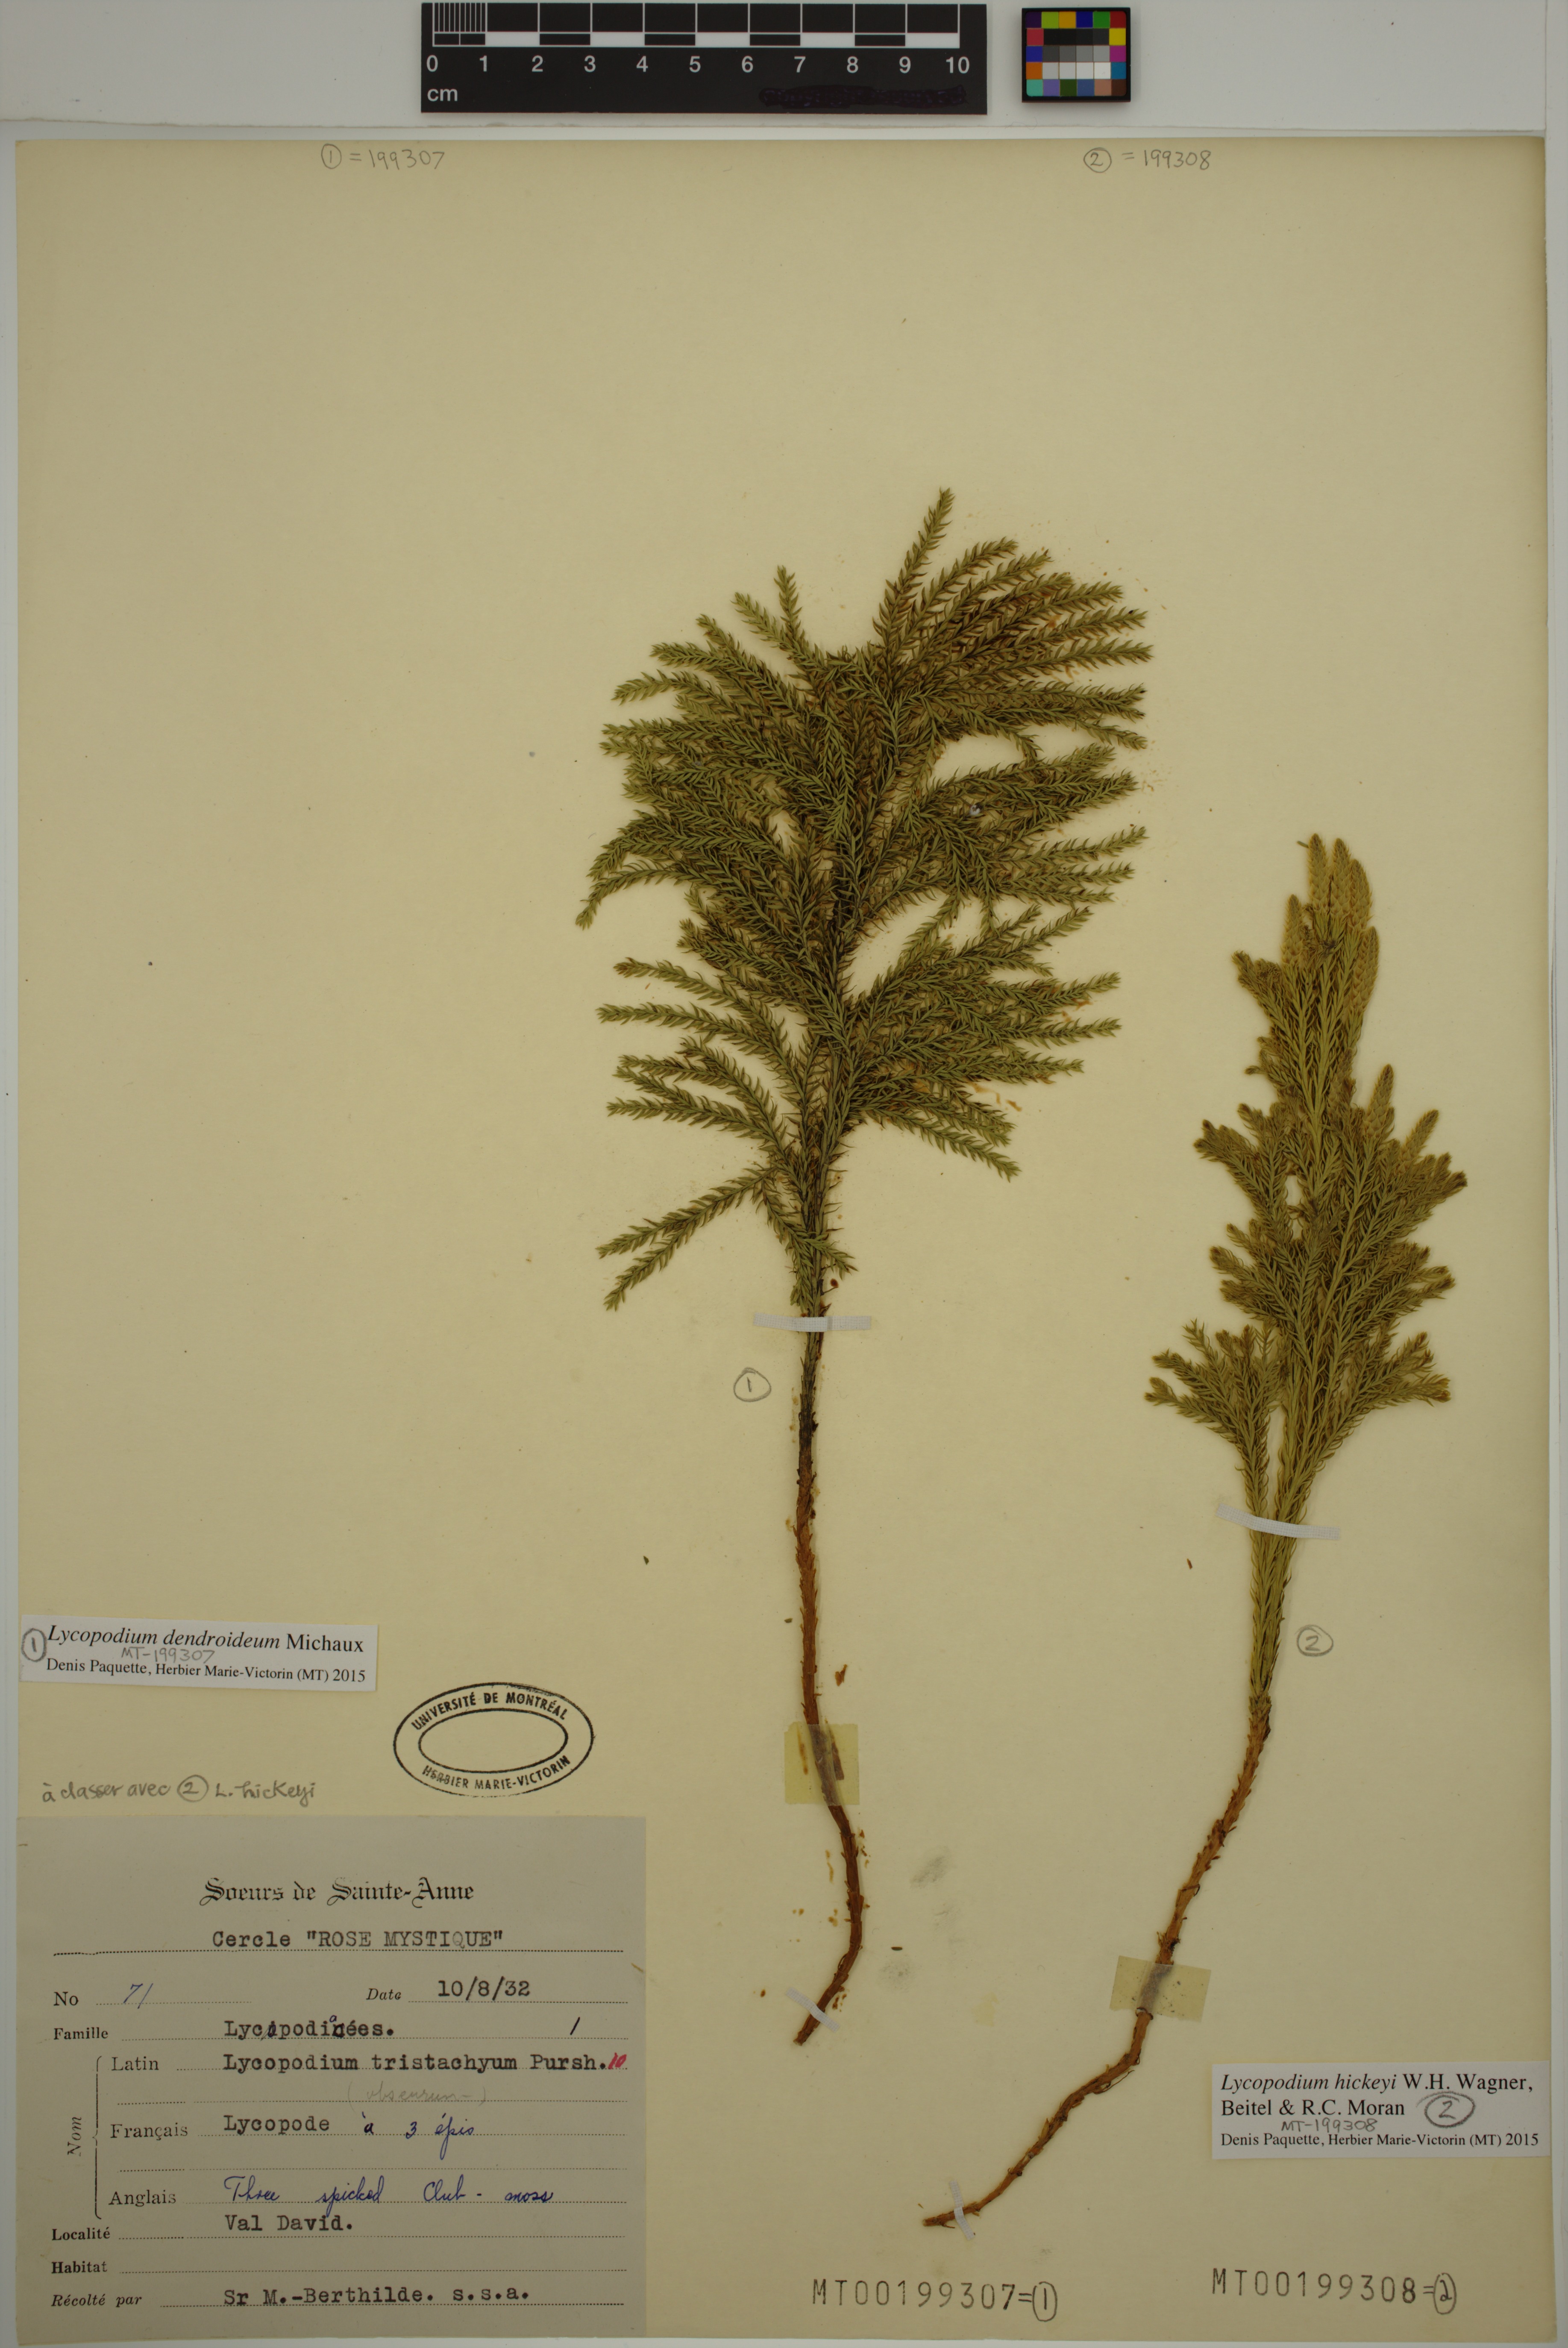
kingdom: Plantae
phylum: Tracheophyta
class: Lycopodiopsida
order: Lycopodiales
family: Lycopodiaceae
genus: Dendrolycopodium
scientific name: Dendrolycopodium hickeyi
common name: Hickey's clubmoss
